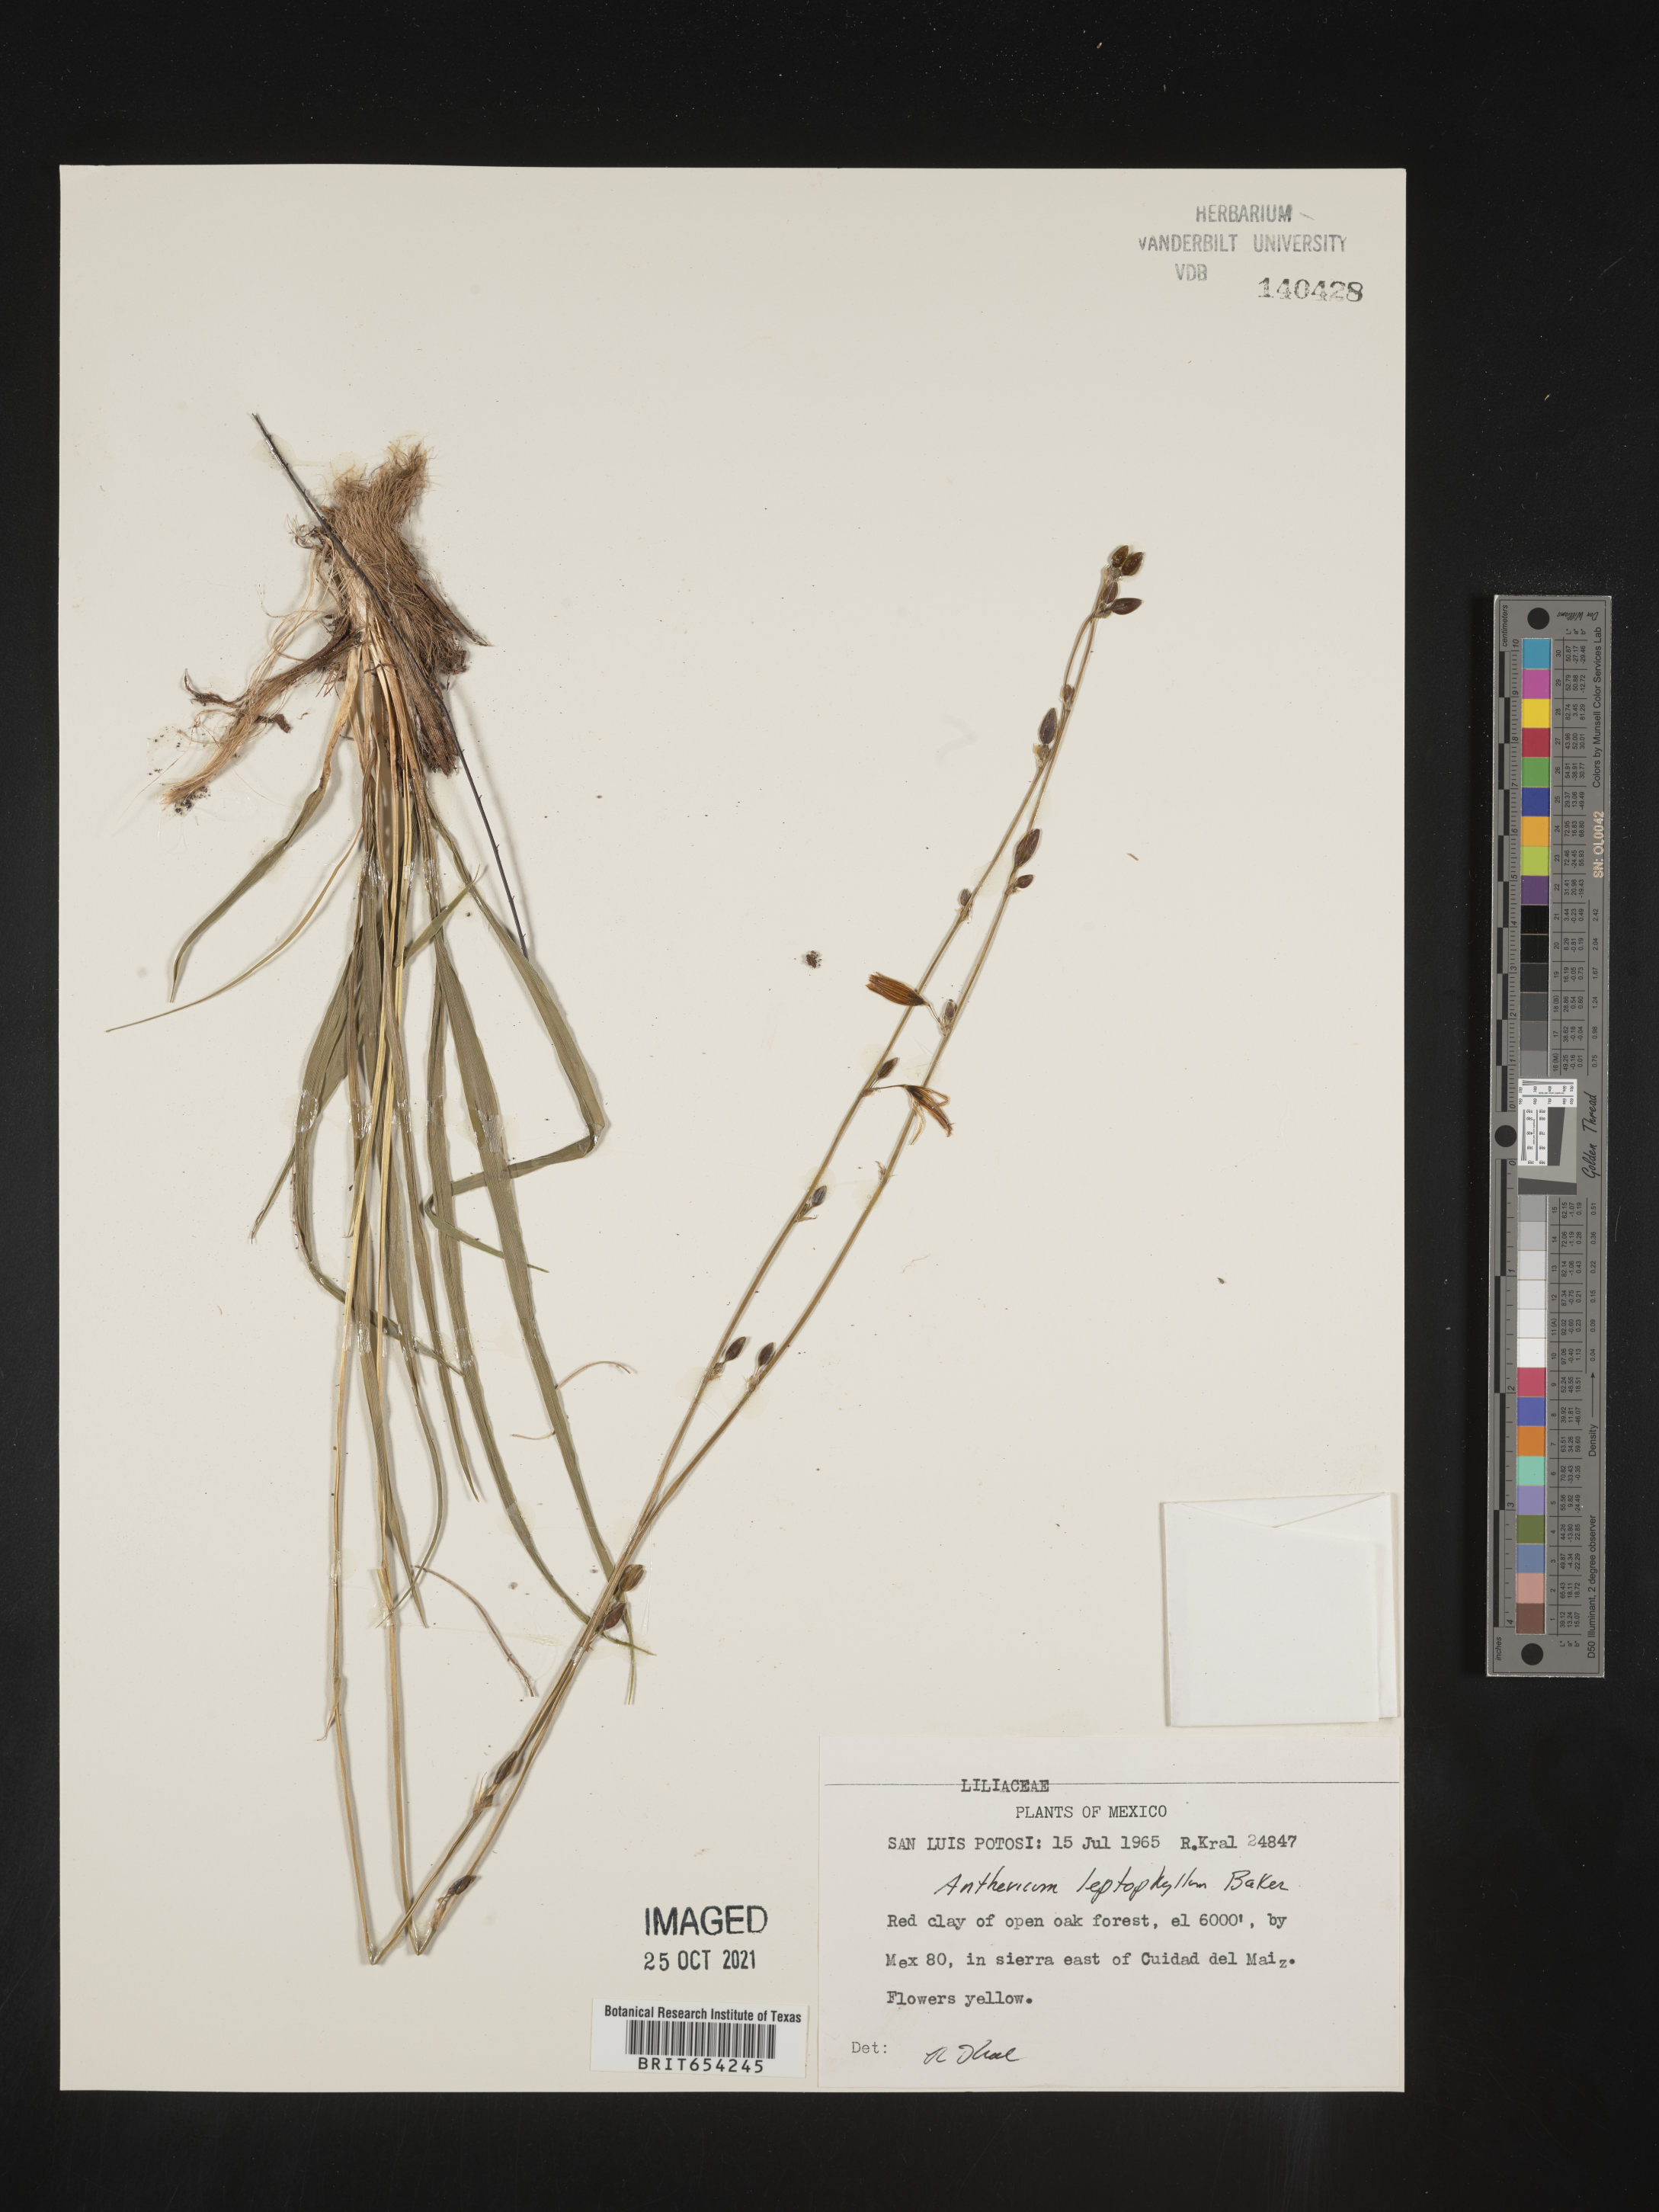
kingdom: Plantae
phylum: Tracheophyta
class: Liliopsida
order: Asparagales
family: Asparagaceae
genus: Anthericum
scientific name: Anthericum
